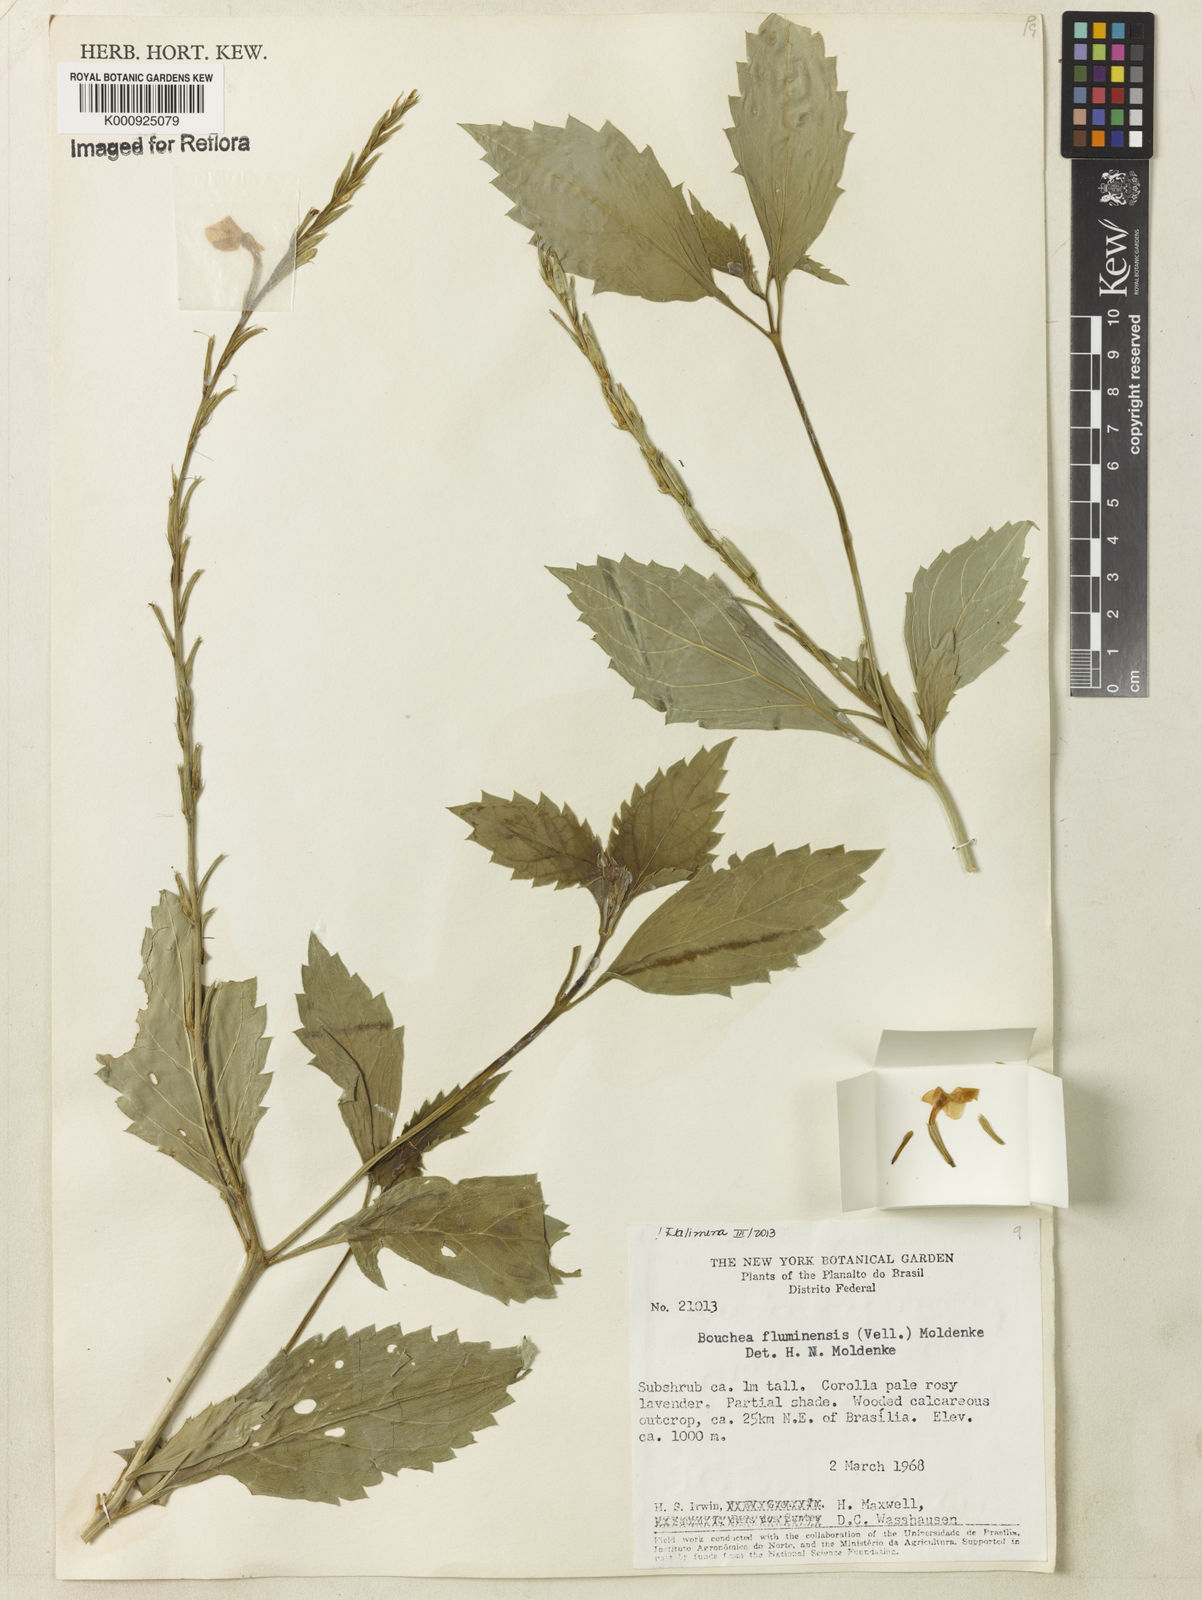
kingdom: Plantae
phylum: Tracheophyta
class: Magnoliopsida
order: Lamiales
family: Verbenaceae
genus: Bouchea
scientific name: Bouchea pseudogervao
